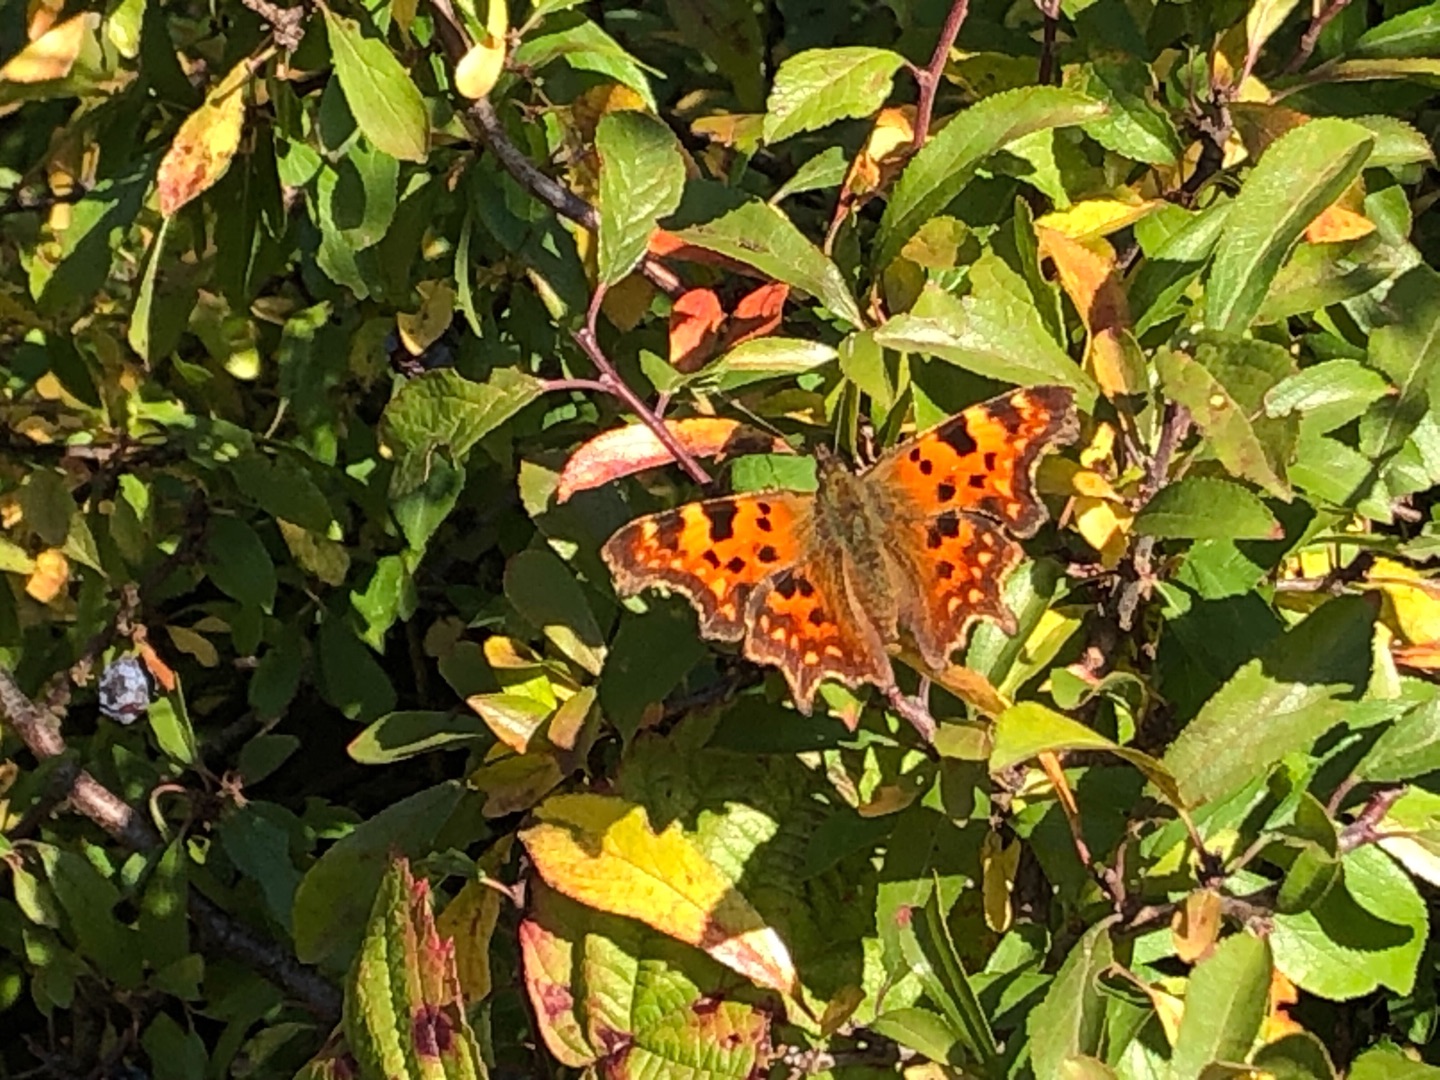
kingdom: Animalia
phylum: Arthropoda
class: Insecta
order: Lepidoptera
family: Nymphalidae
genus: Polygonia
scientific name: Polygonia c-album
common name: Det hvide C
